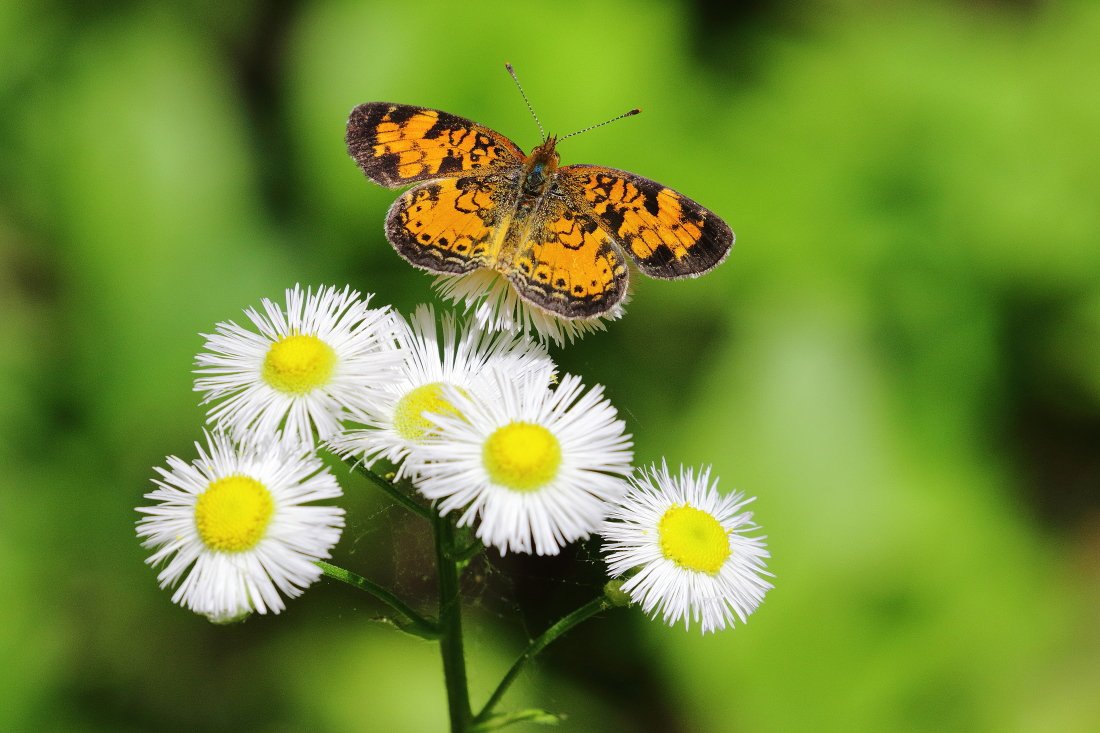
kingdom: Animalia
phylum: Arthropoda
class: Insecta
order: Lepidoptera
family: Nymphalidae
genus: Phyciodes
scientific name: Phyciodes tharos
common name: Northern Crescent
